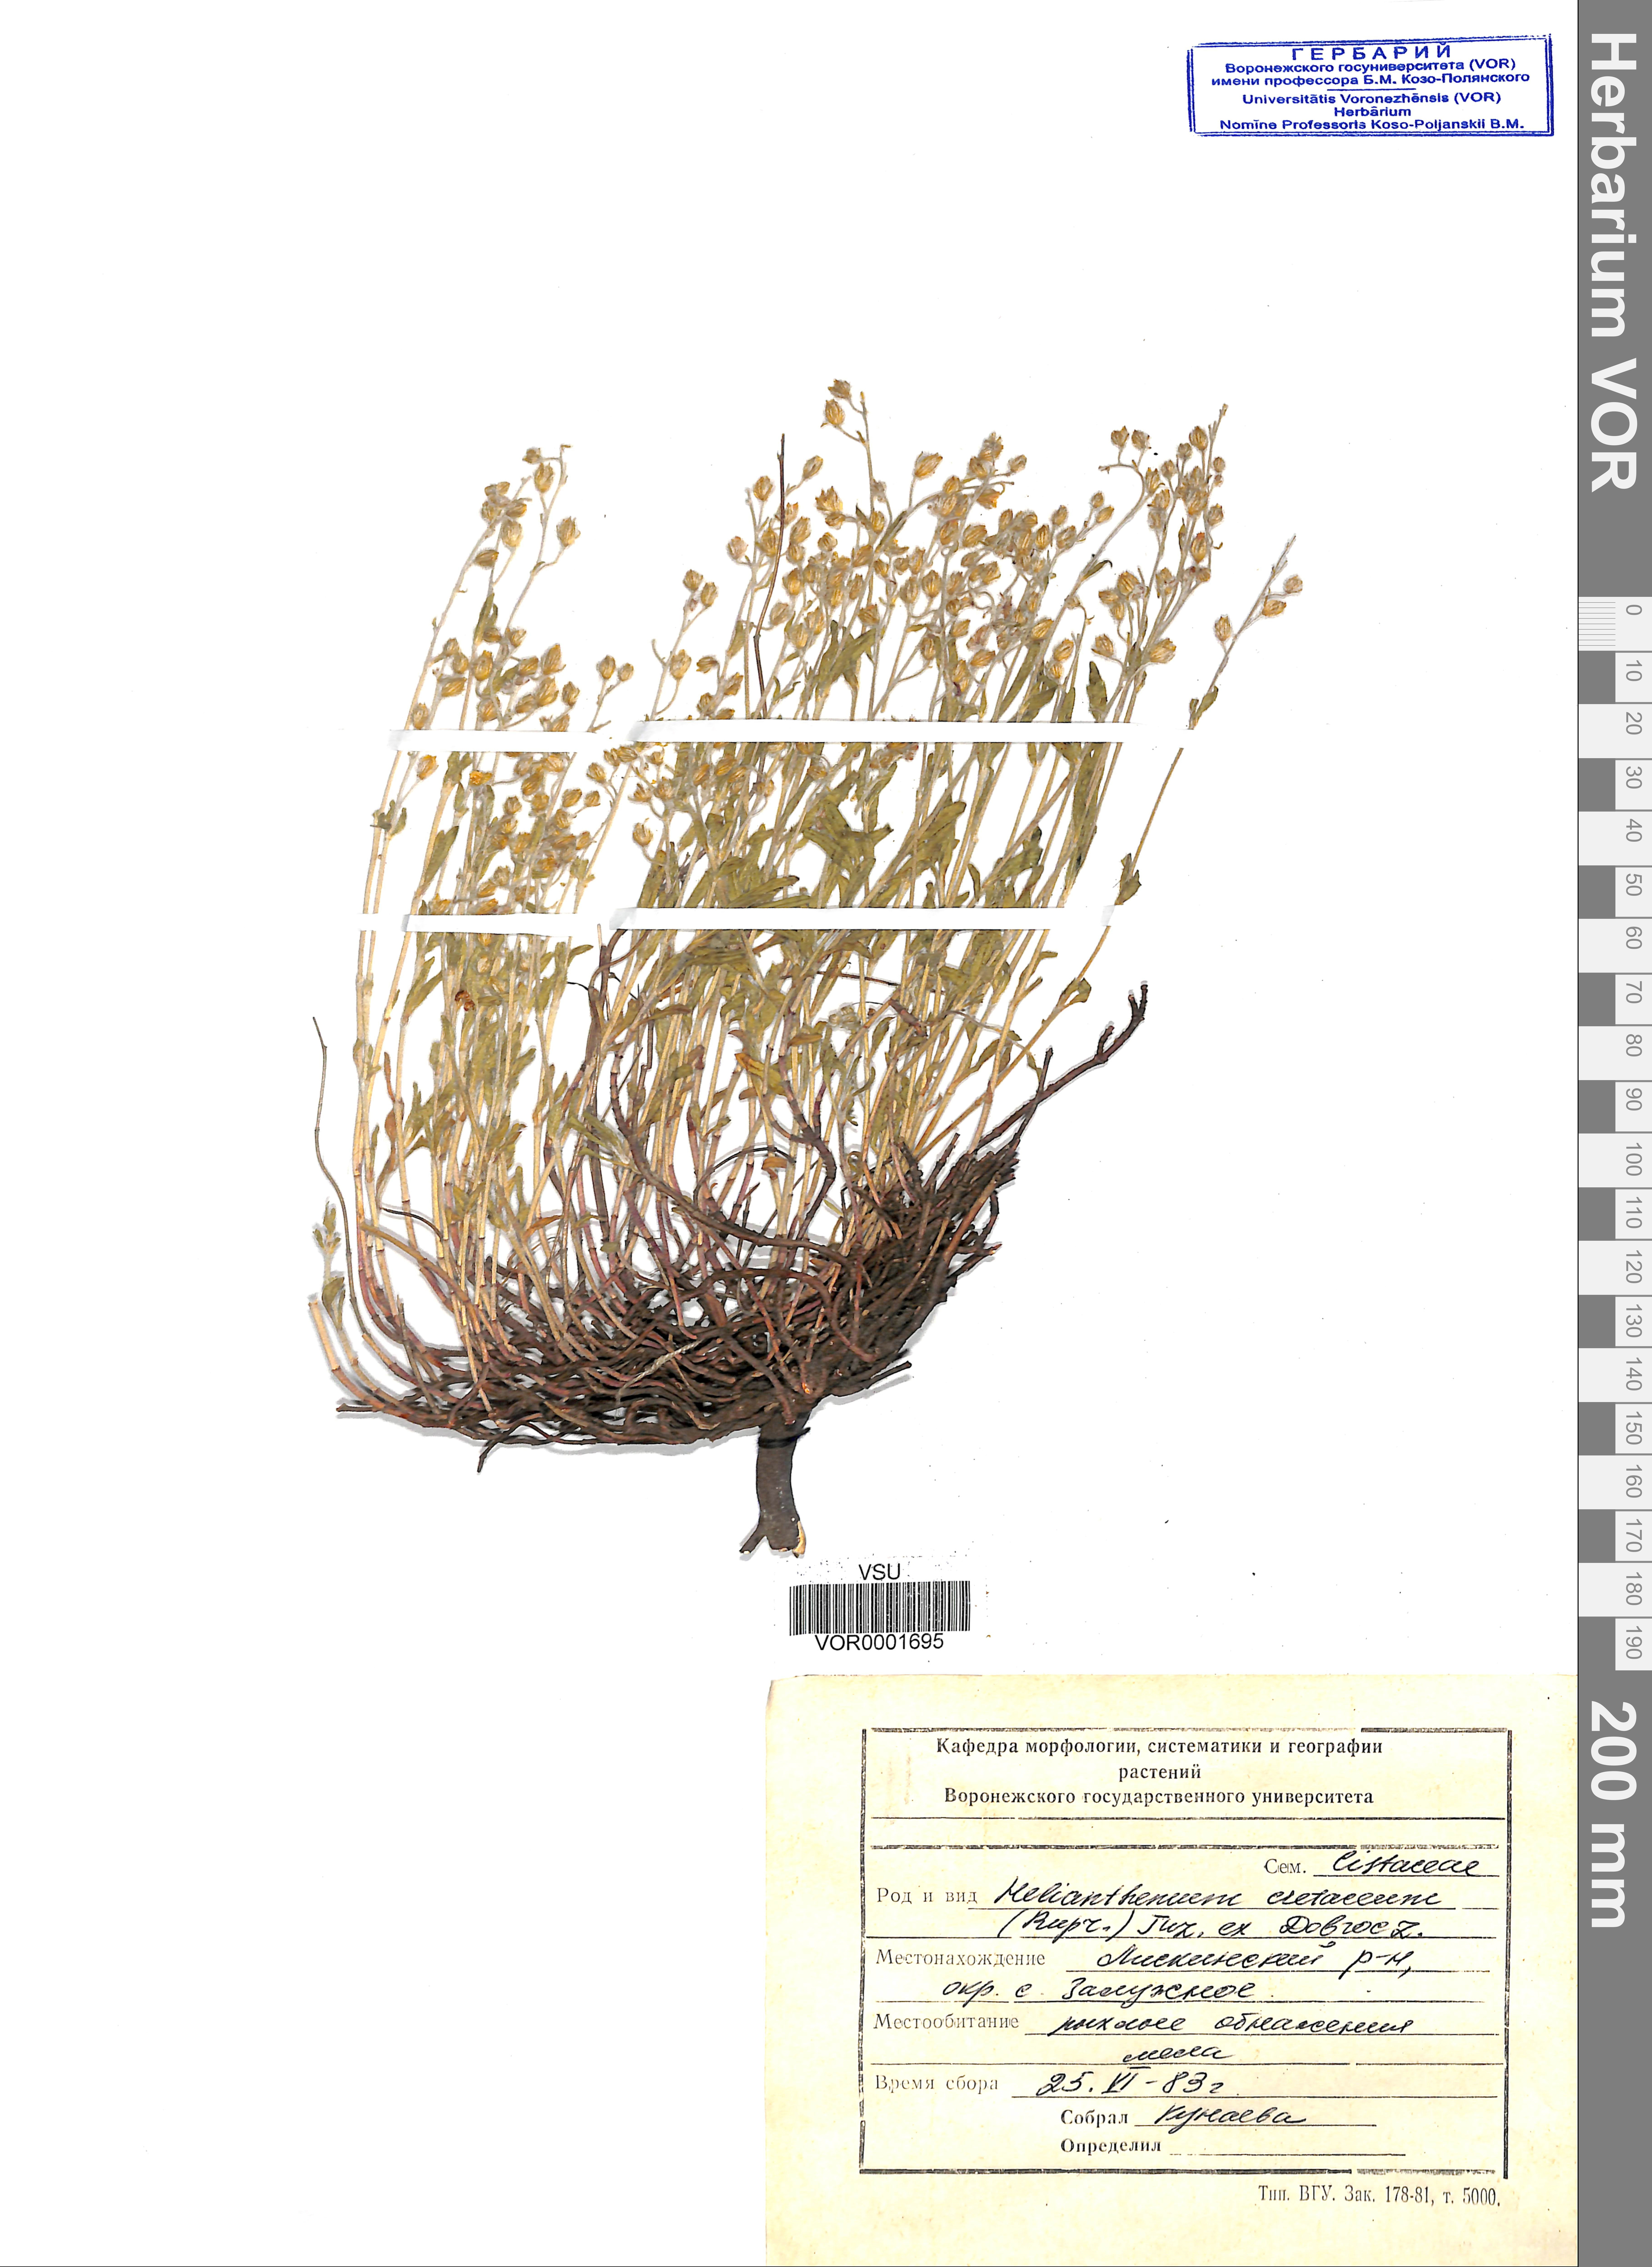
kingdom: Plantae
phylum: Tracheophyta
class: Magnoliopsida
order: Malvales
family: Cistaceae
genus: Helianthemum
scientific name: Helianthemum rupifragum
